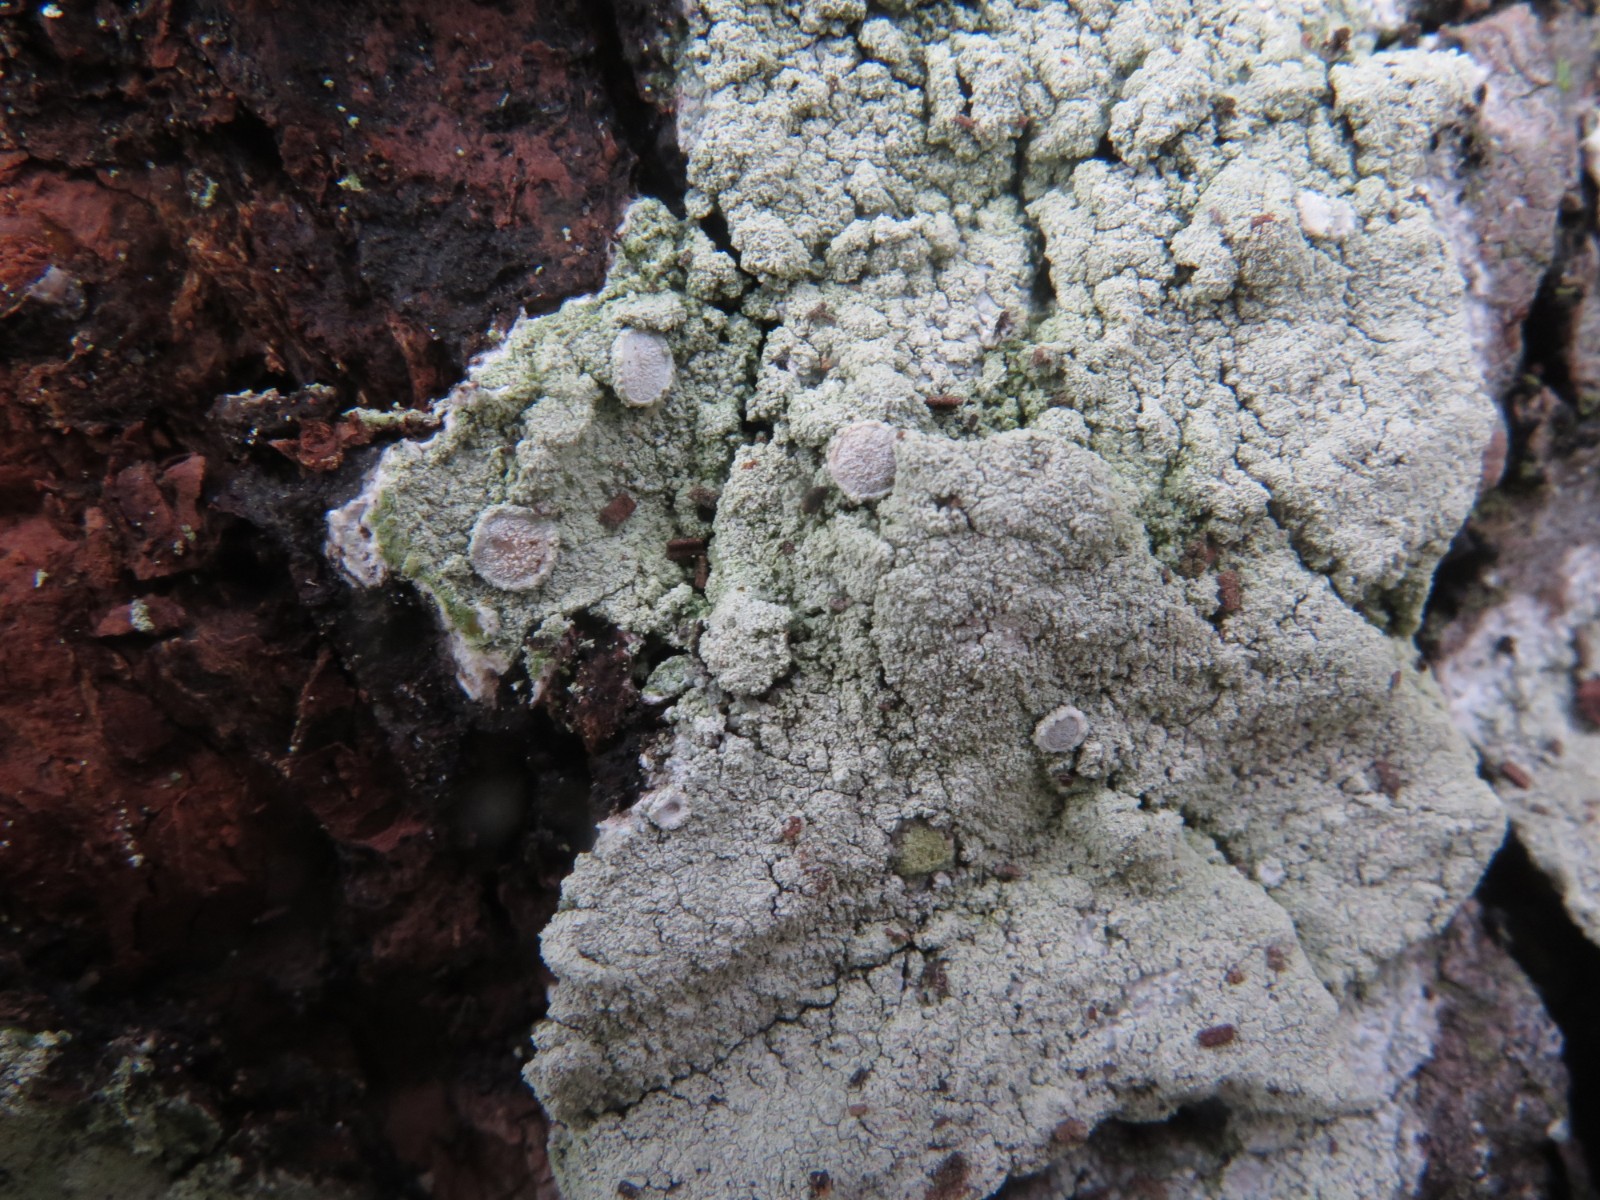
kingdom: Fungi
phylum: Ascomycota
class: Lecanoromycetes
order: Pertusariales
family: Ochrolechiaceae
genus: Ochrolechia
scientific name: Ochrolechia turneri
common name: turners blegskivelav
